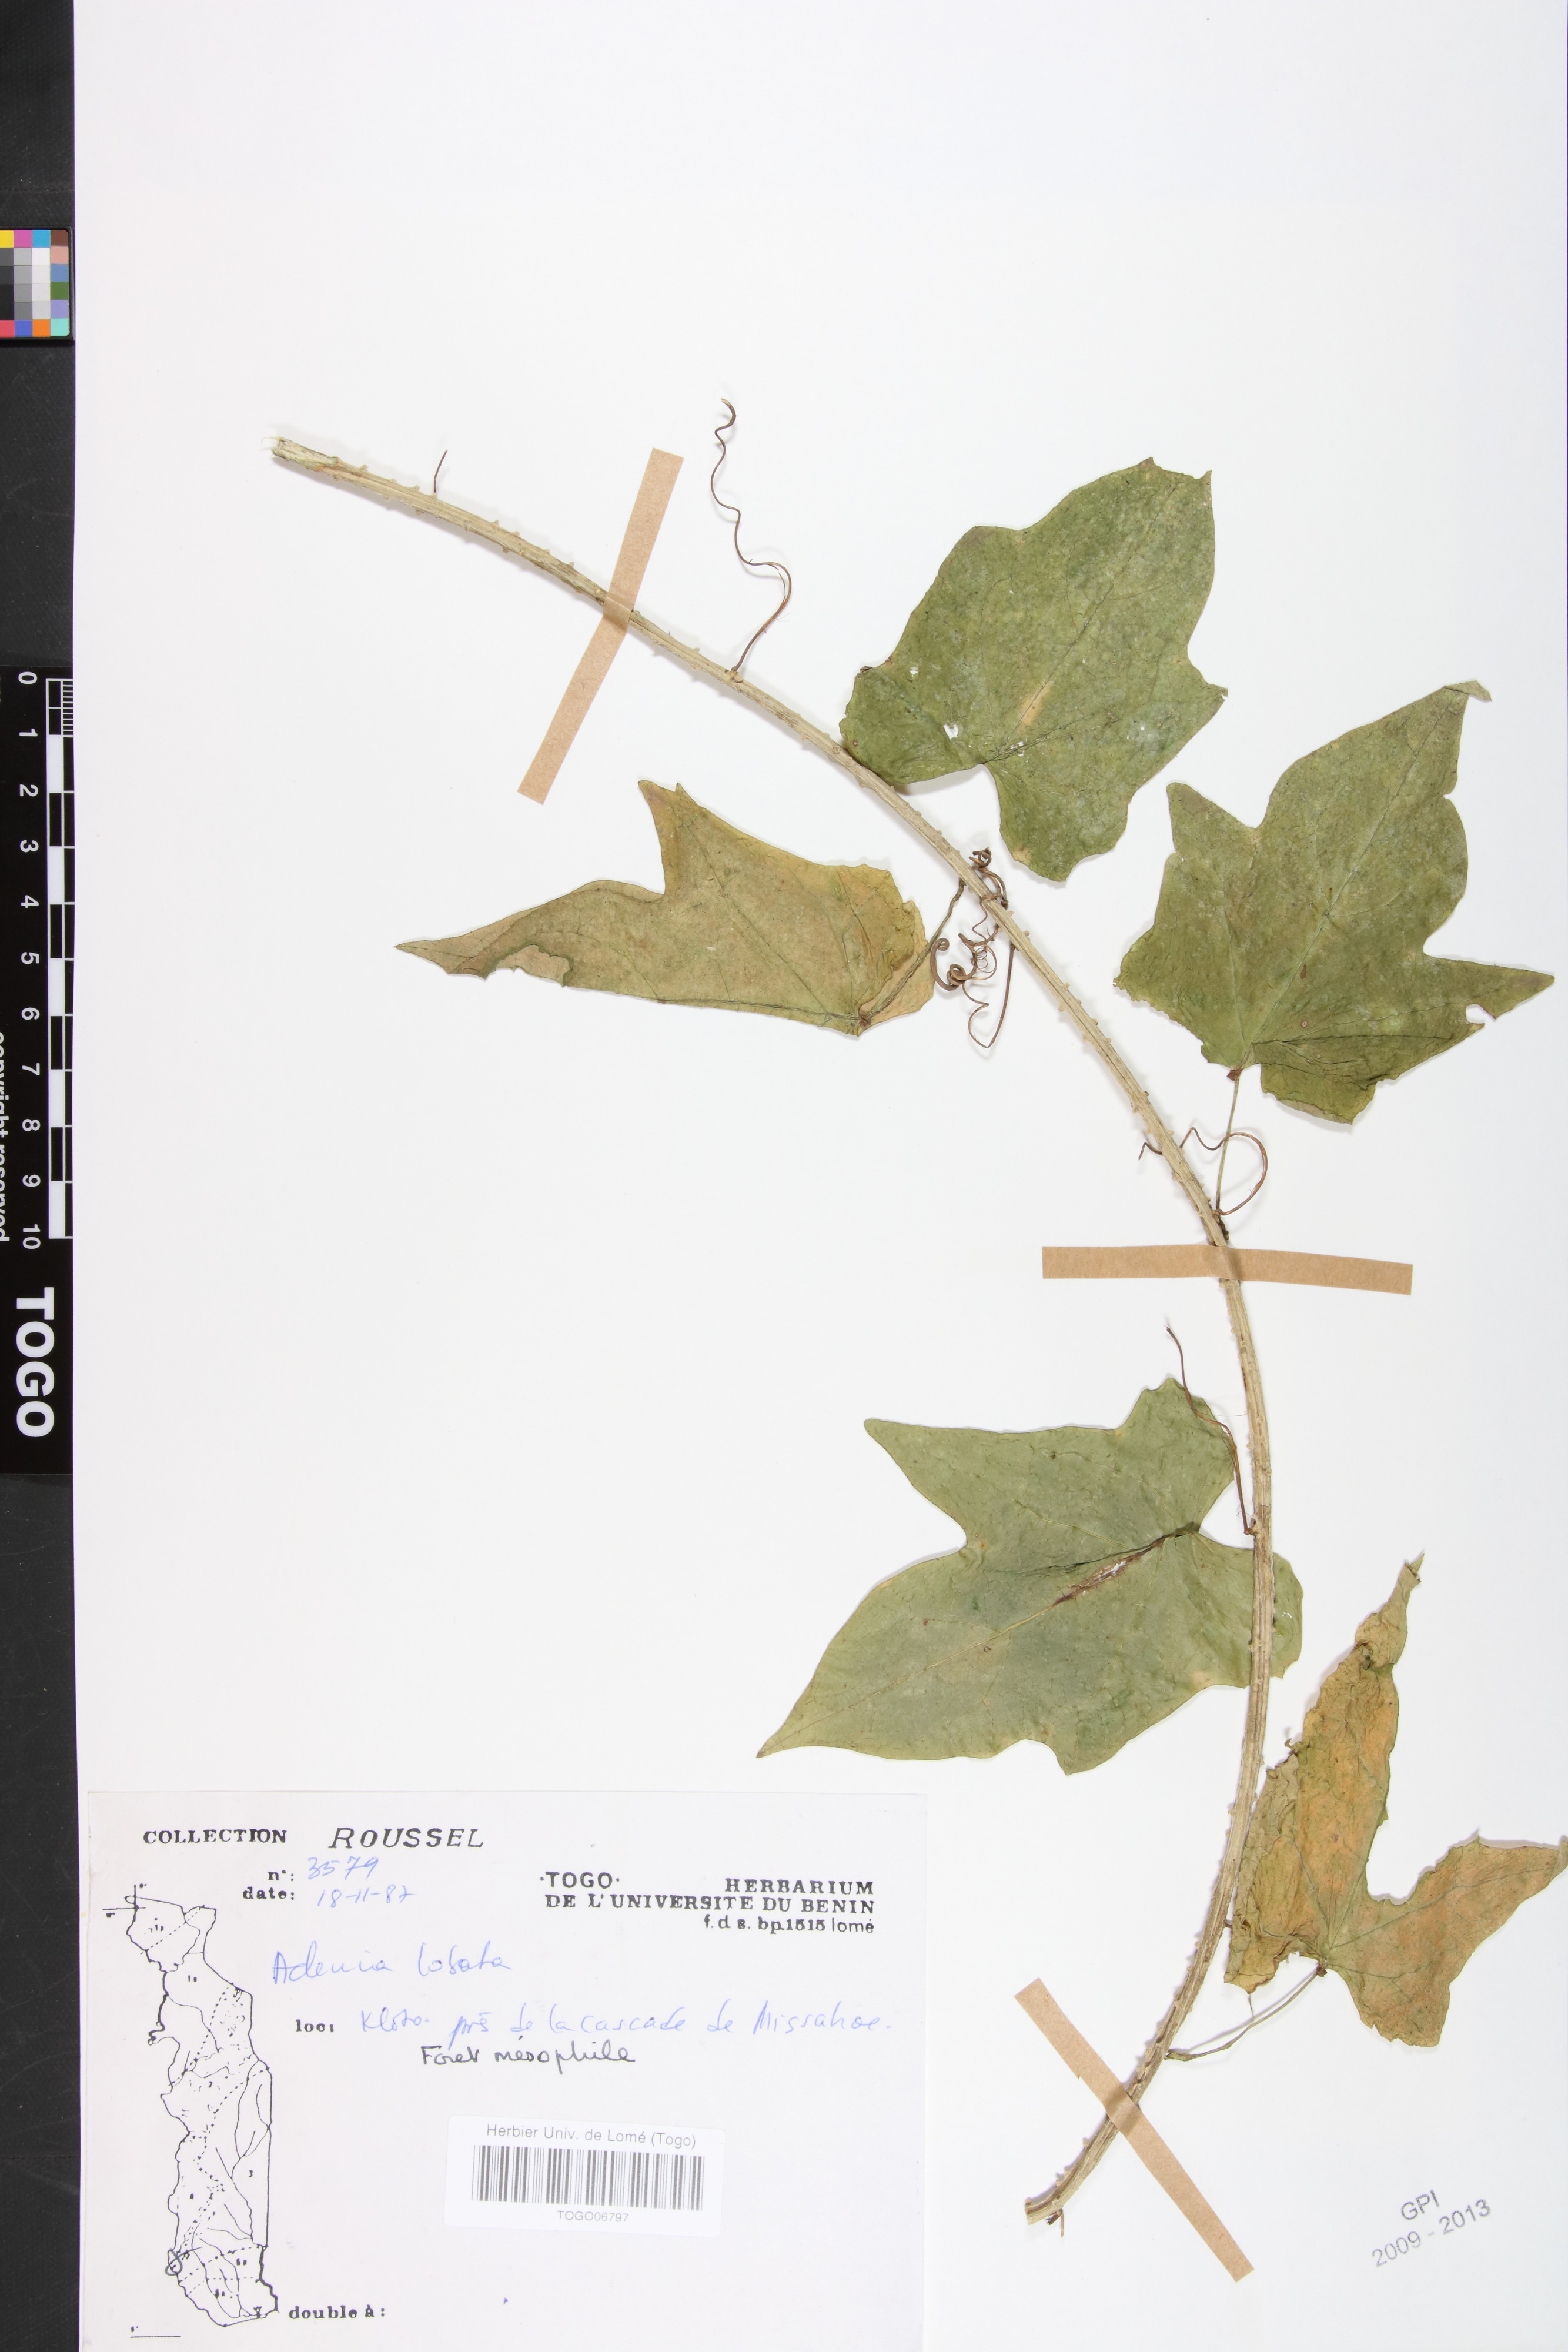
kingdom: Plantae
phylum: Tracheophyta
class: Magnoliopsida
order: Malpighiales
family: Passifloraceae
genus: Adenia
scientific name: Adenia lobata
